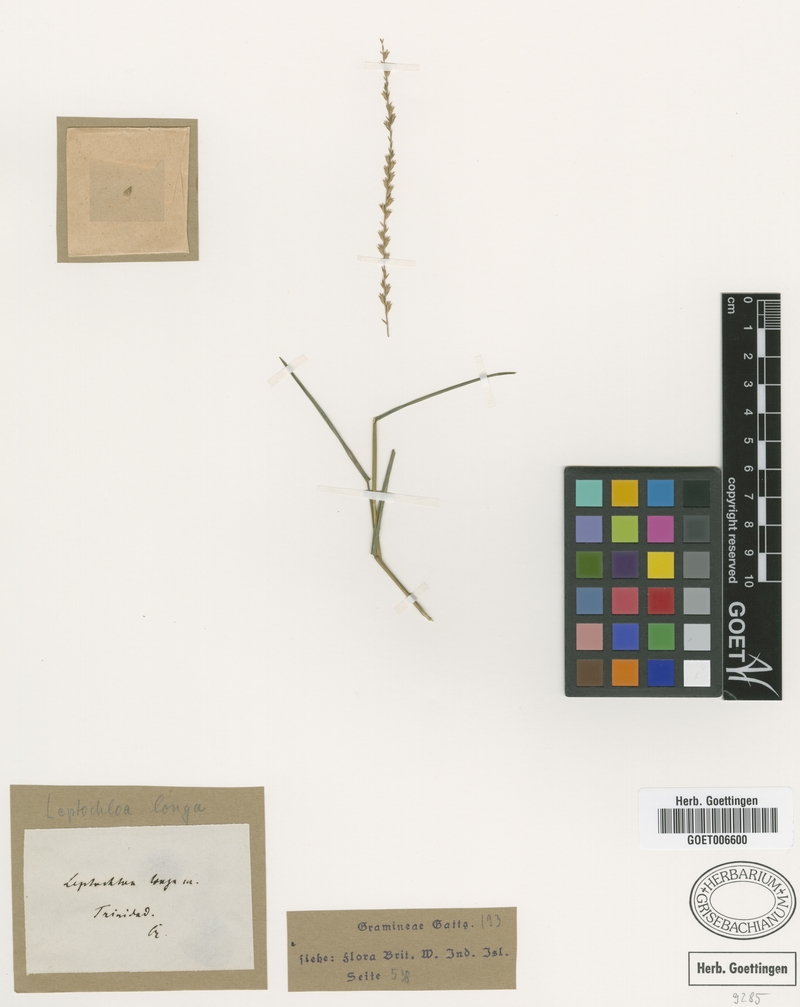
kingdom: Plantae
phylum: Tracheophyta
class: Liliopsida
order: Poales
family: Poaceae
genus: Leptochloa
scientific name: Leptochloa longa
